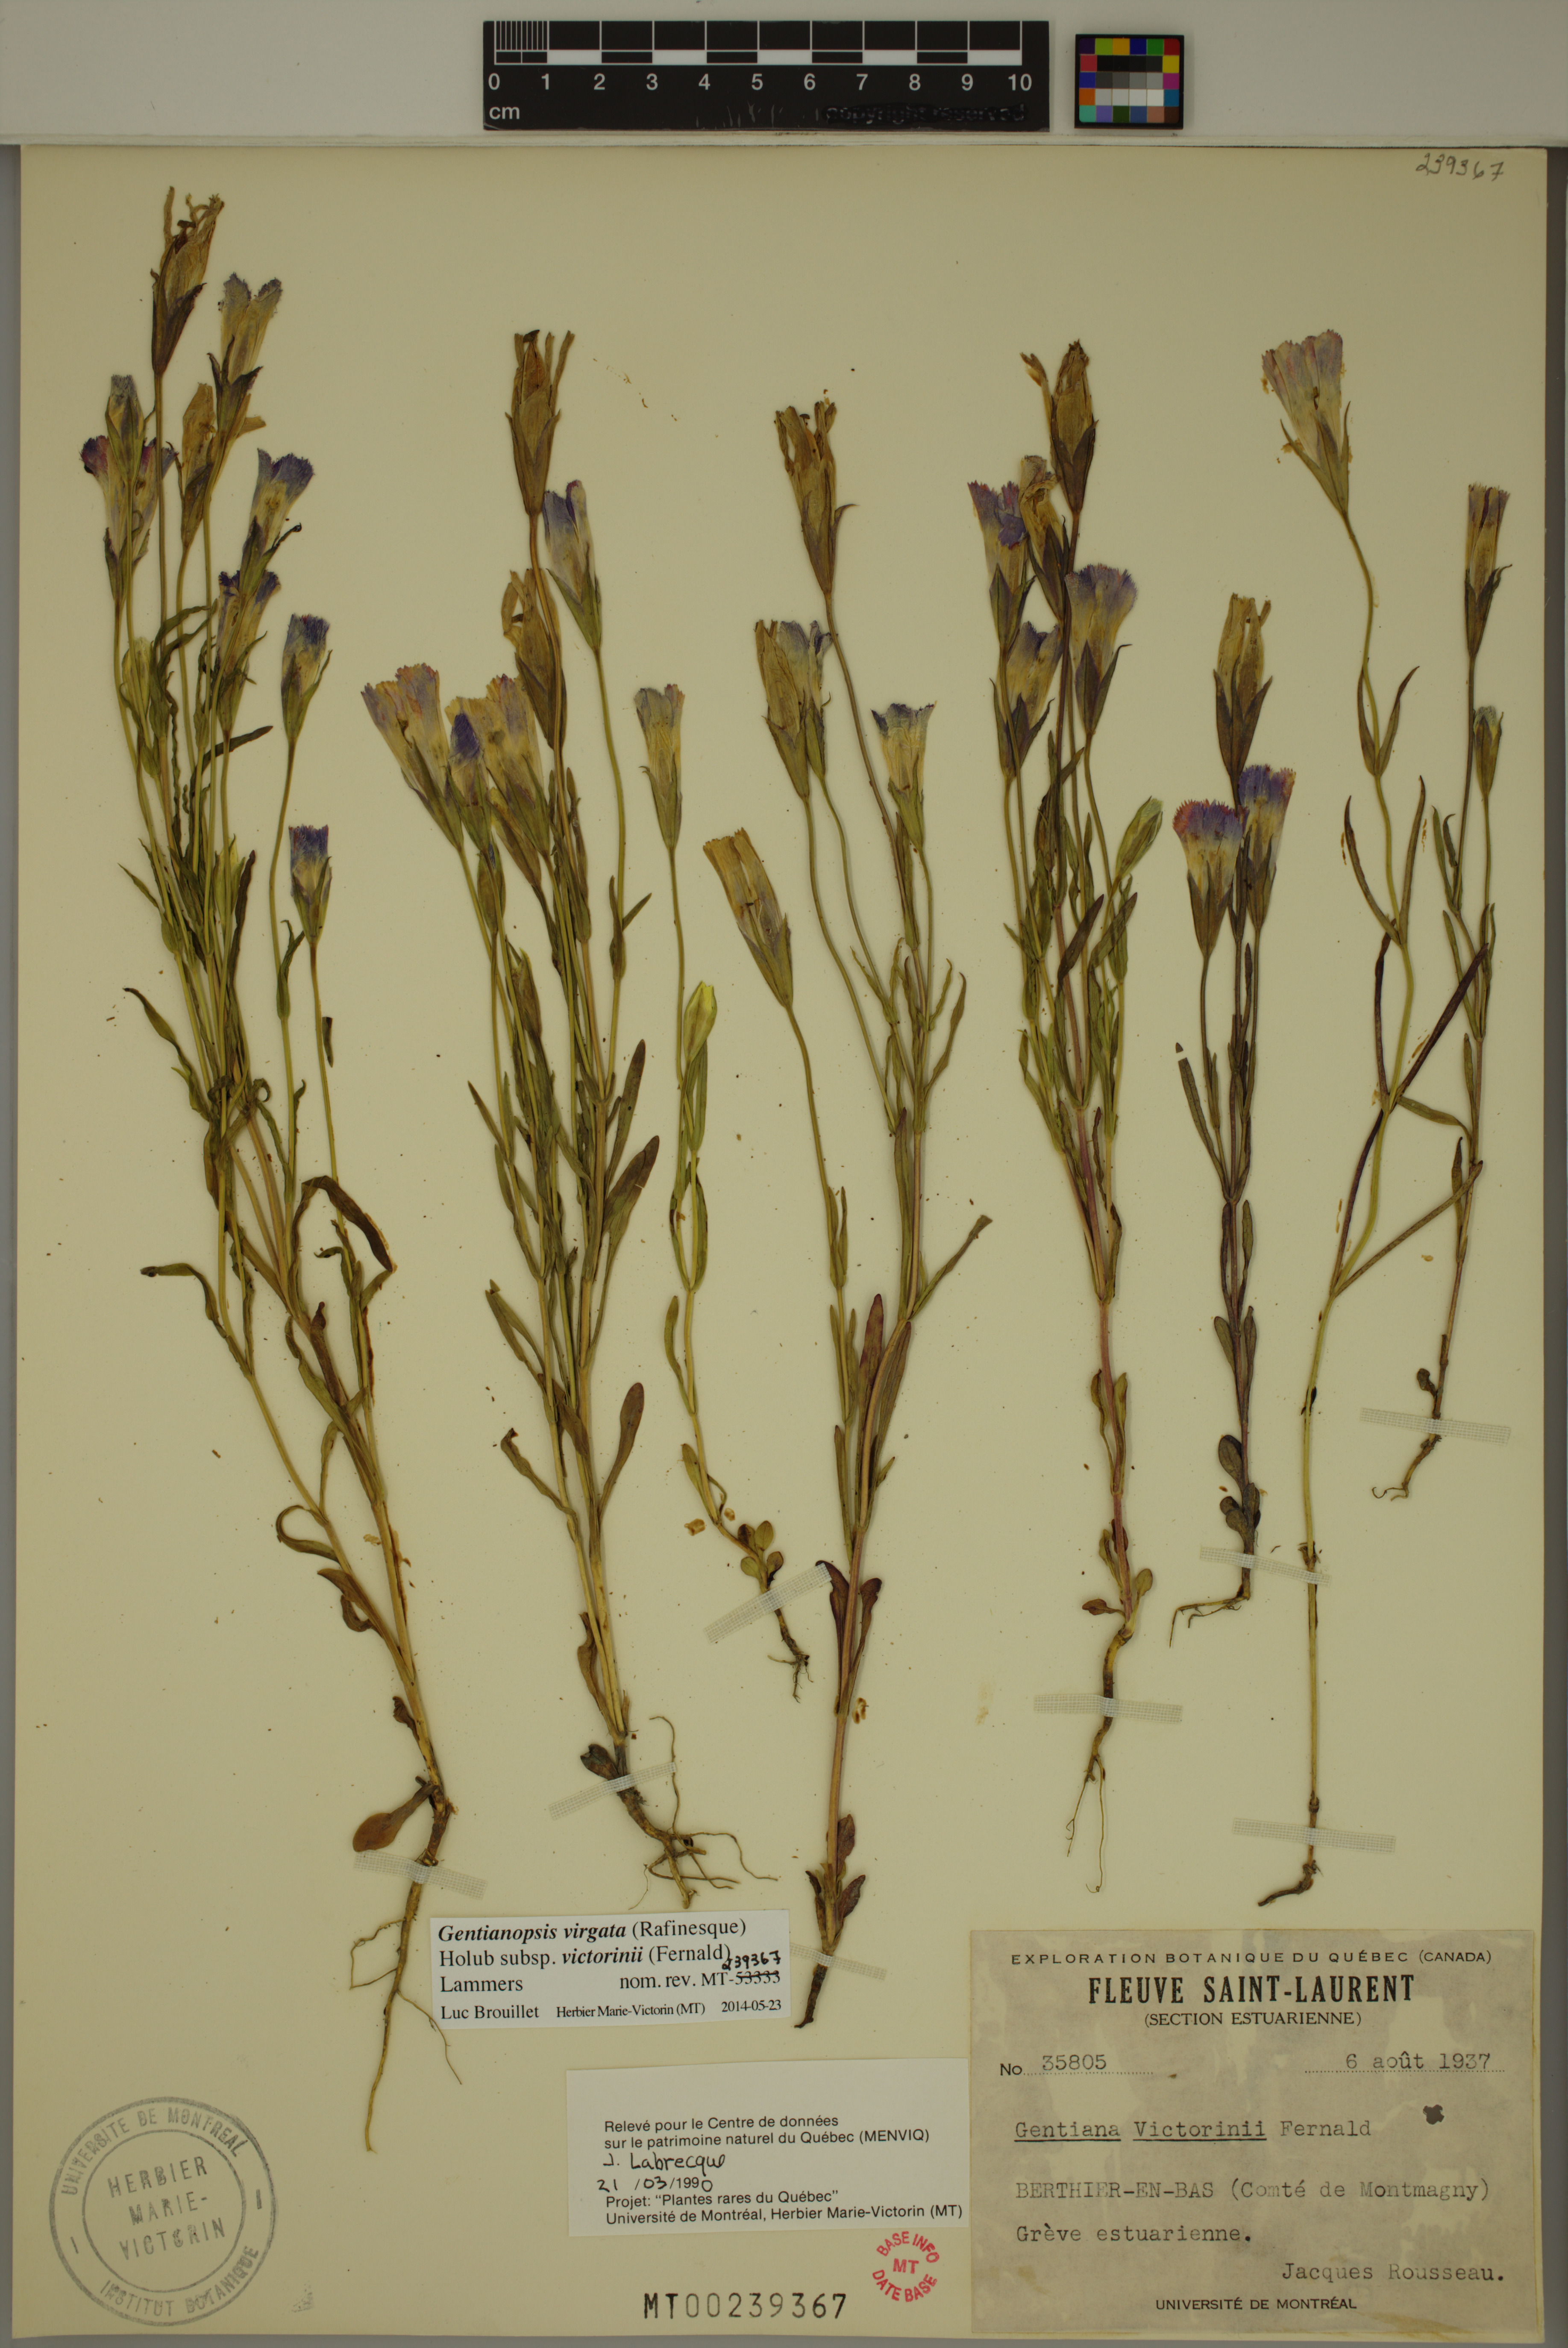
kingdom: Plantae
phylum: Tracheophyta
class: Magnoliopsida
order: Gentianales
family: Gentianaceae
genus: Gentianopsis
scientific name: Gentianopsis victorinii
